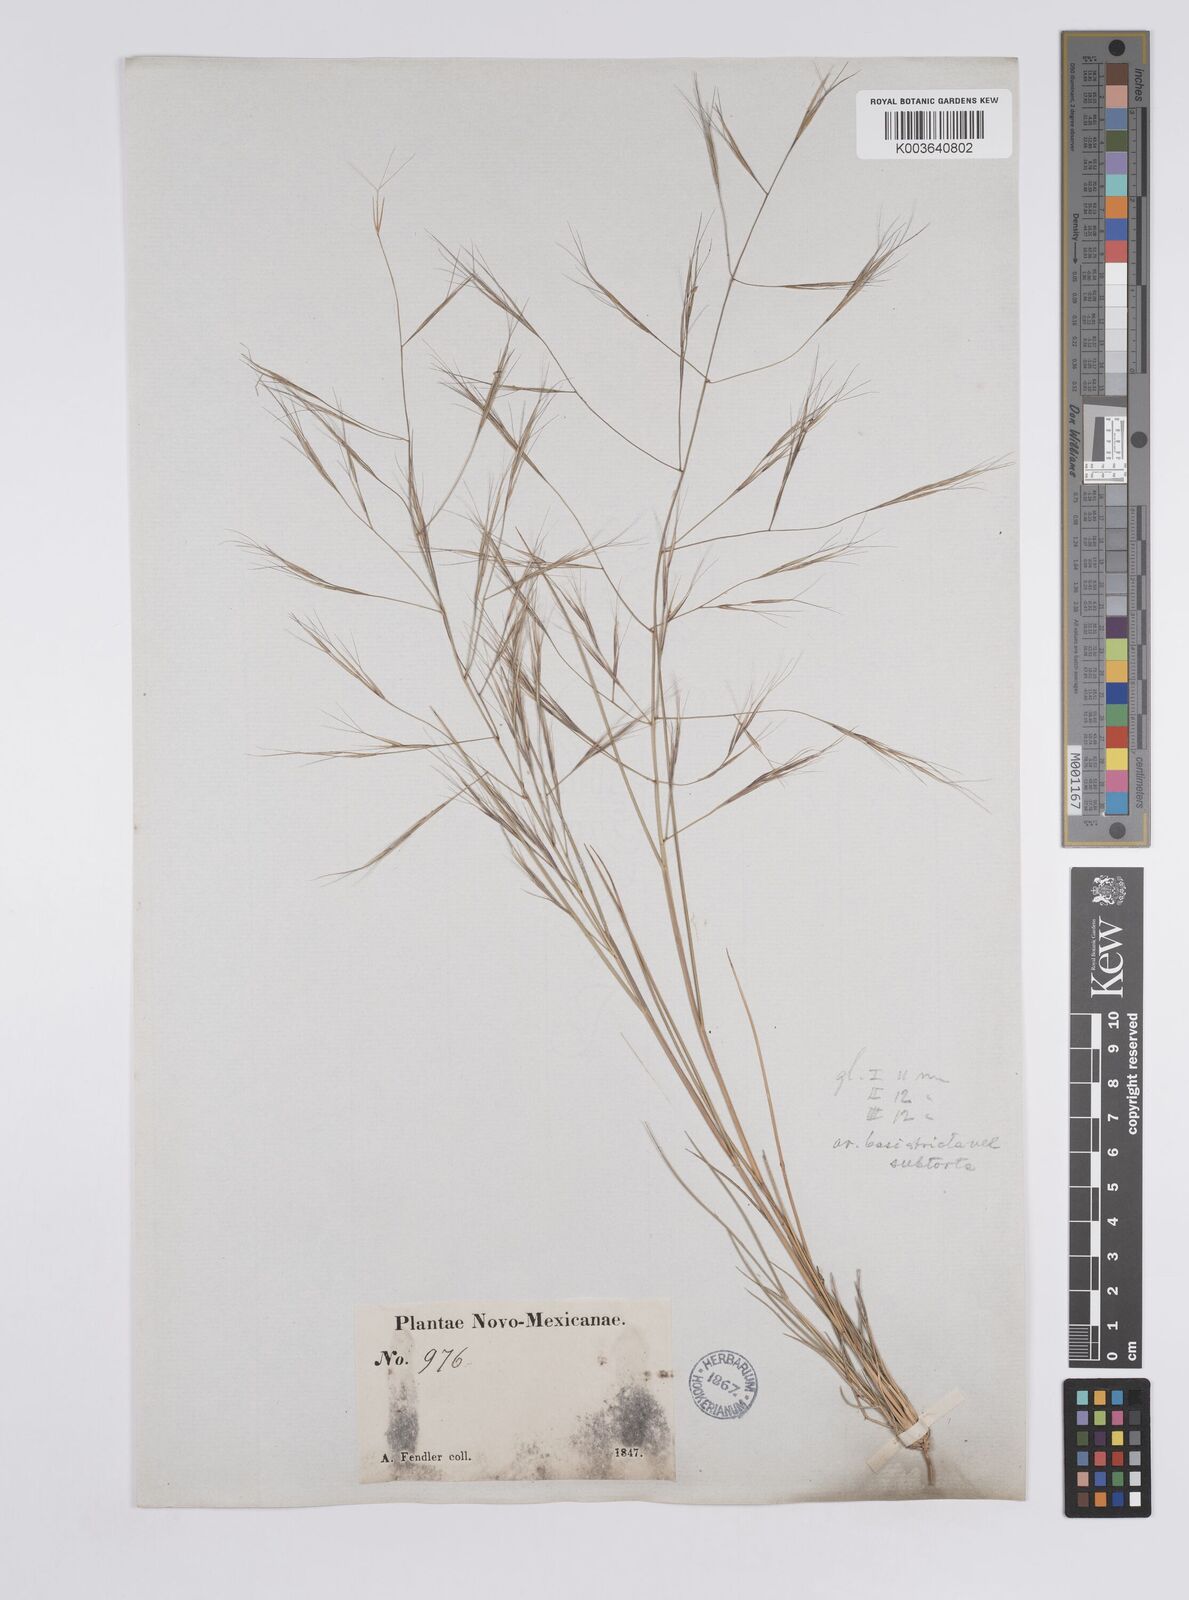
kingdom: Plantae
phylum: Tracheophyta
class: Liliopsida
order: Poales
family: Poaceae
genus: Aristida
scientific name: Aristida laxa
